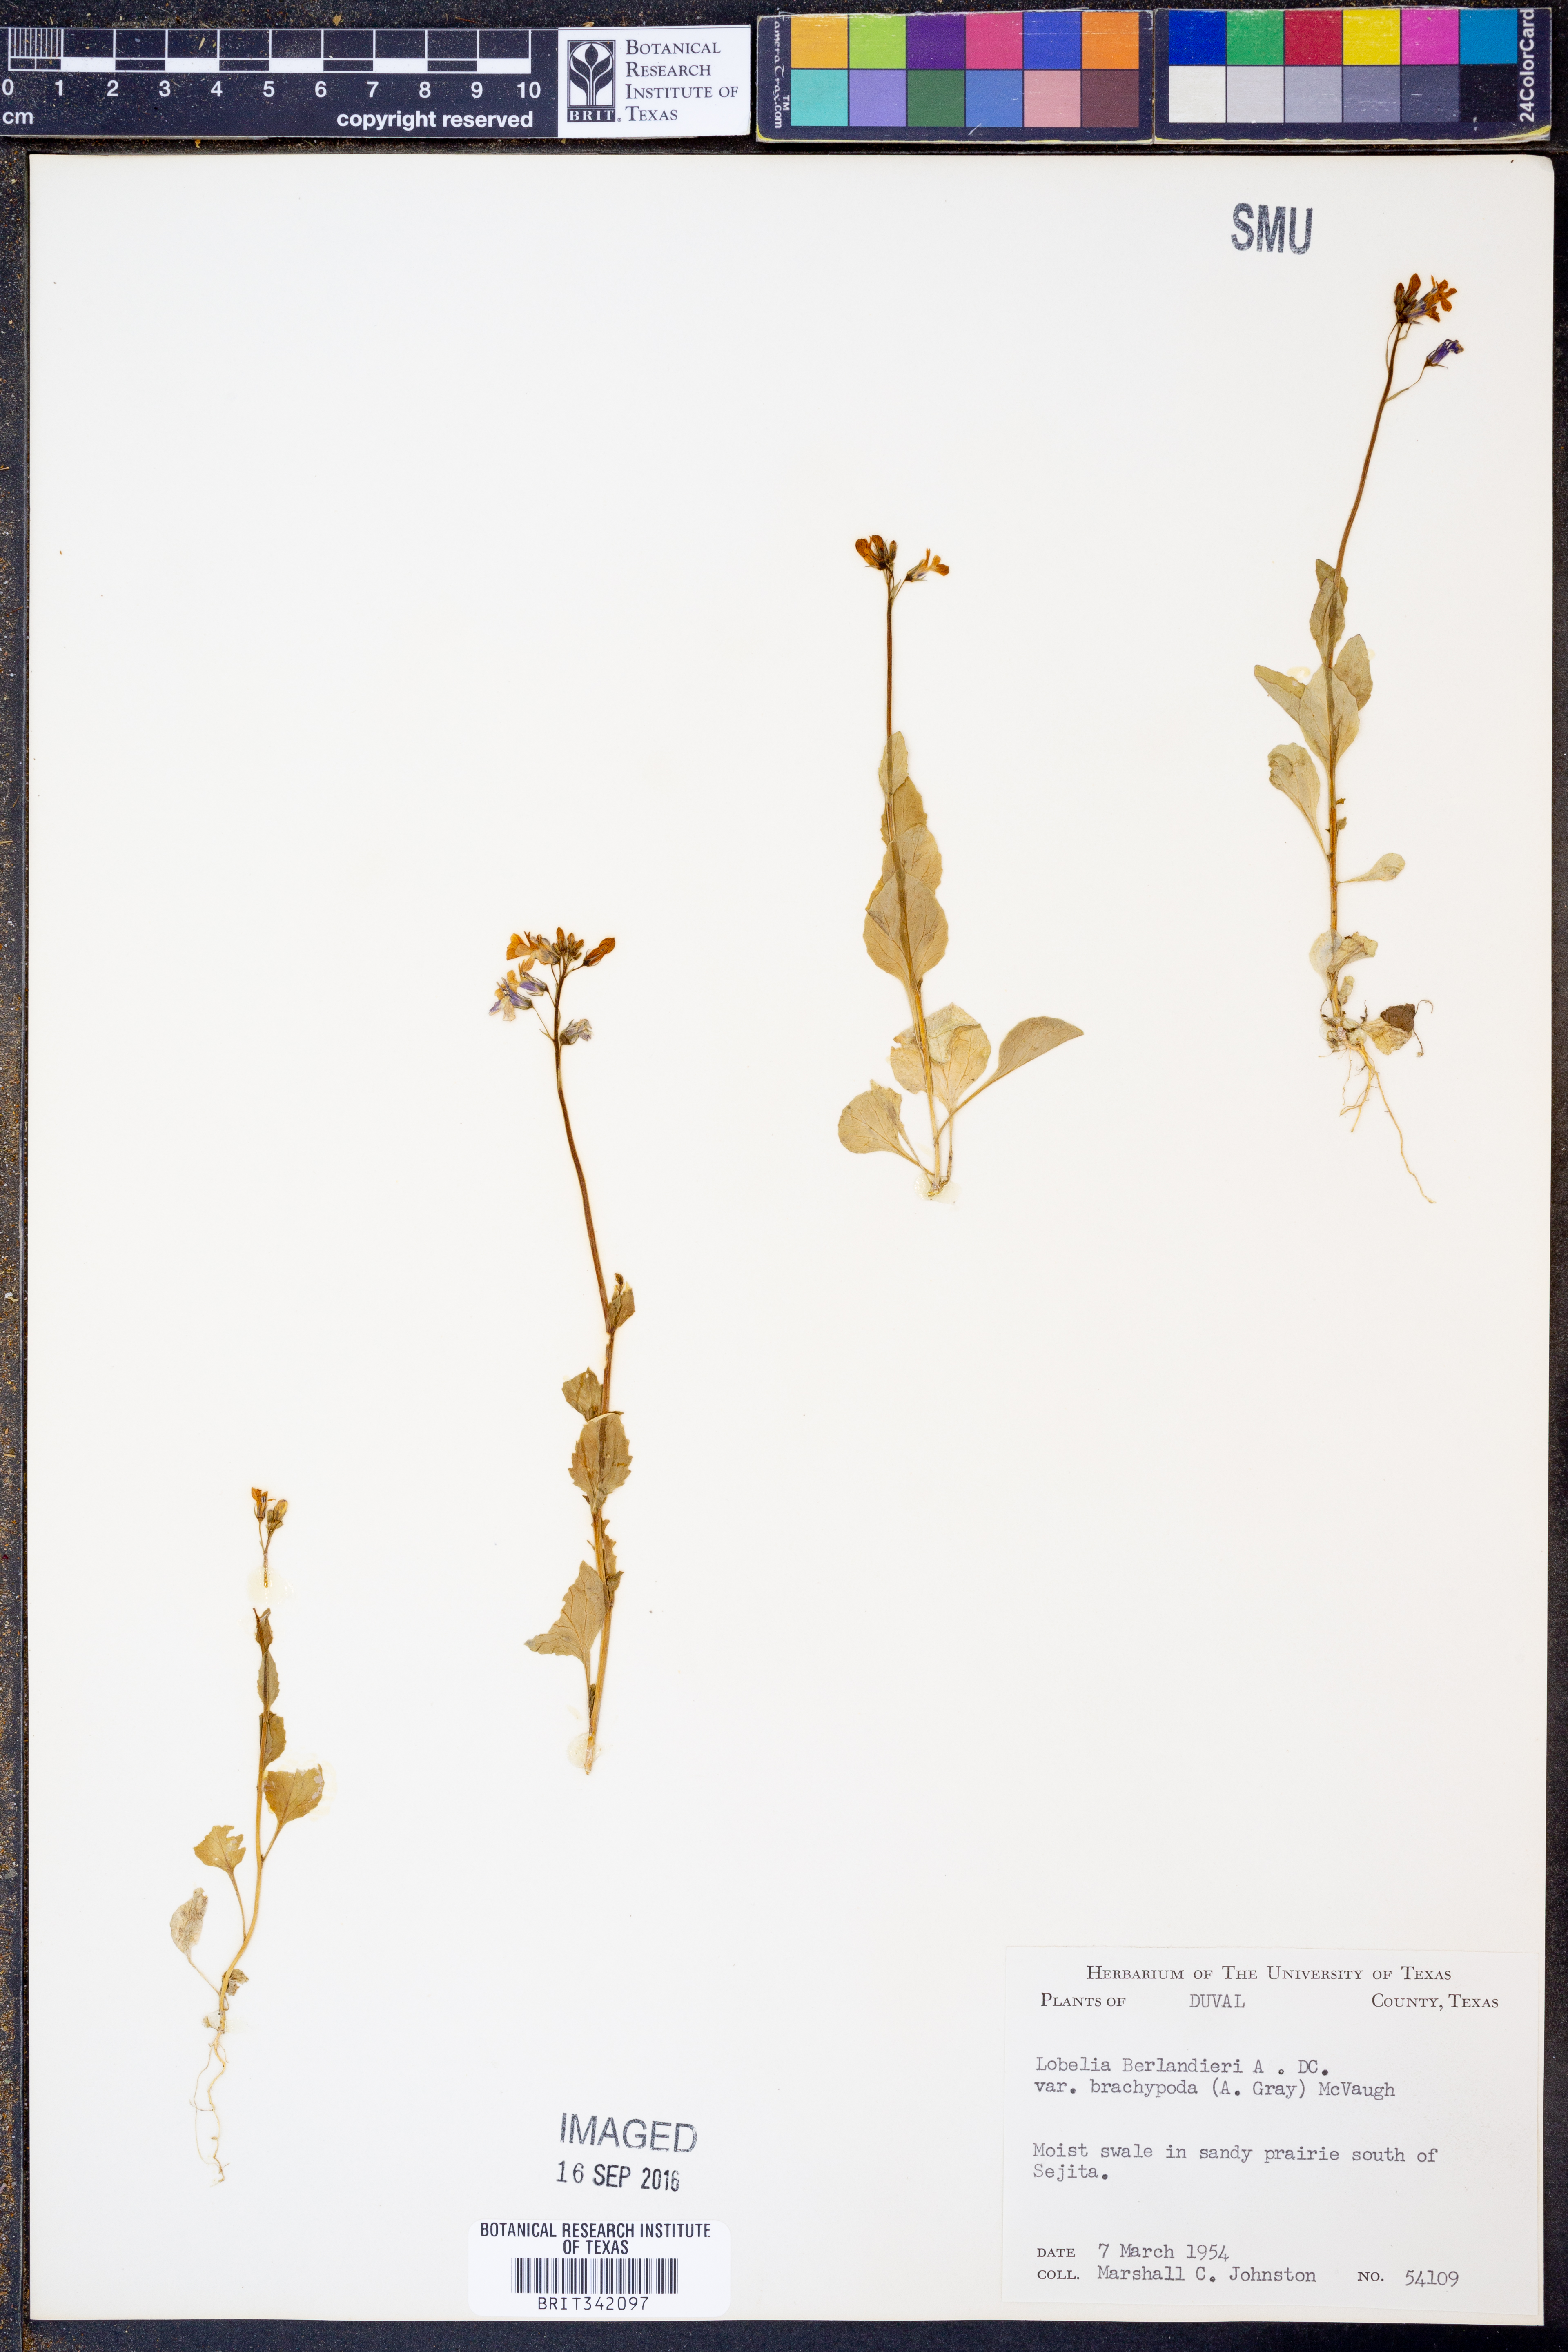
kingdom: Plantae
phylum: Tracheophyta
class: Magnoliopsida
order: Asterales
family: Campanulaceae
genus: Lobelia
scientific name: Lobelia berlandieri
